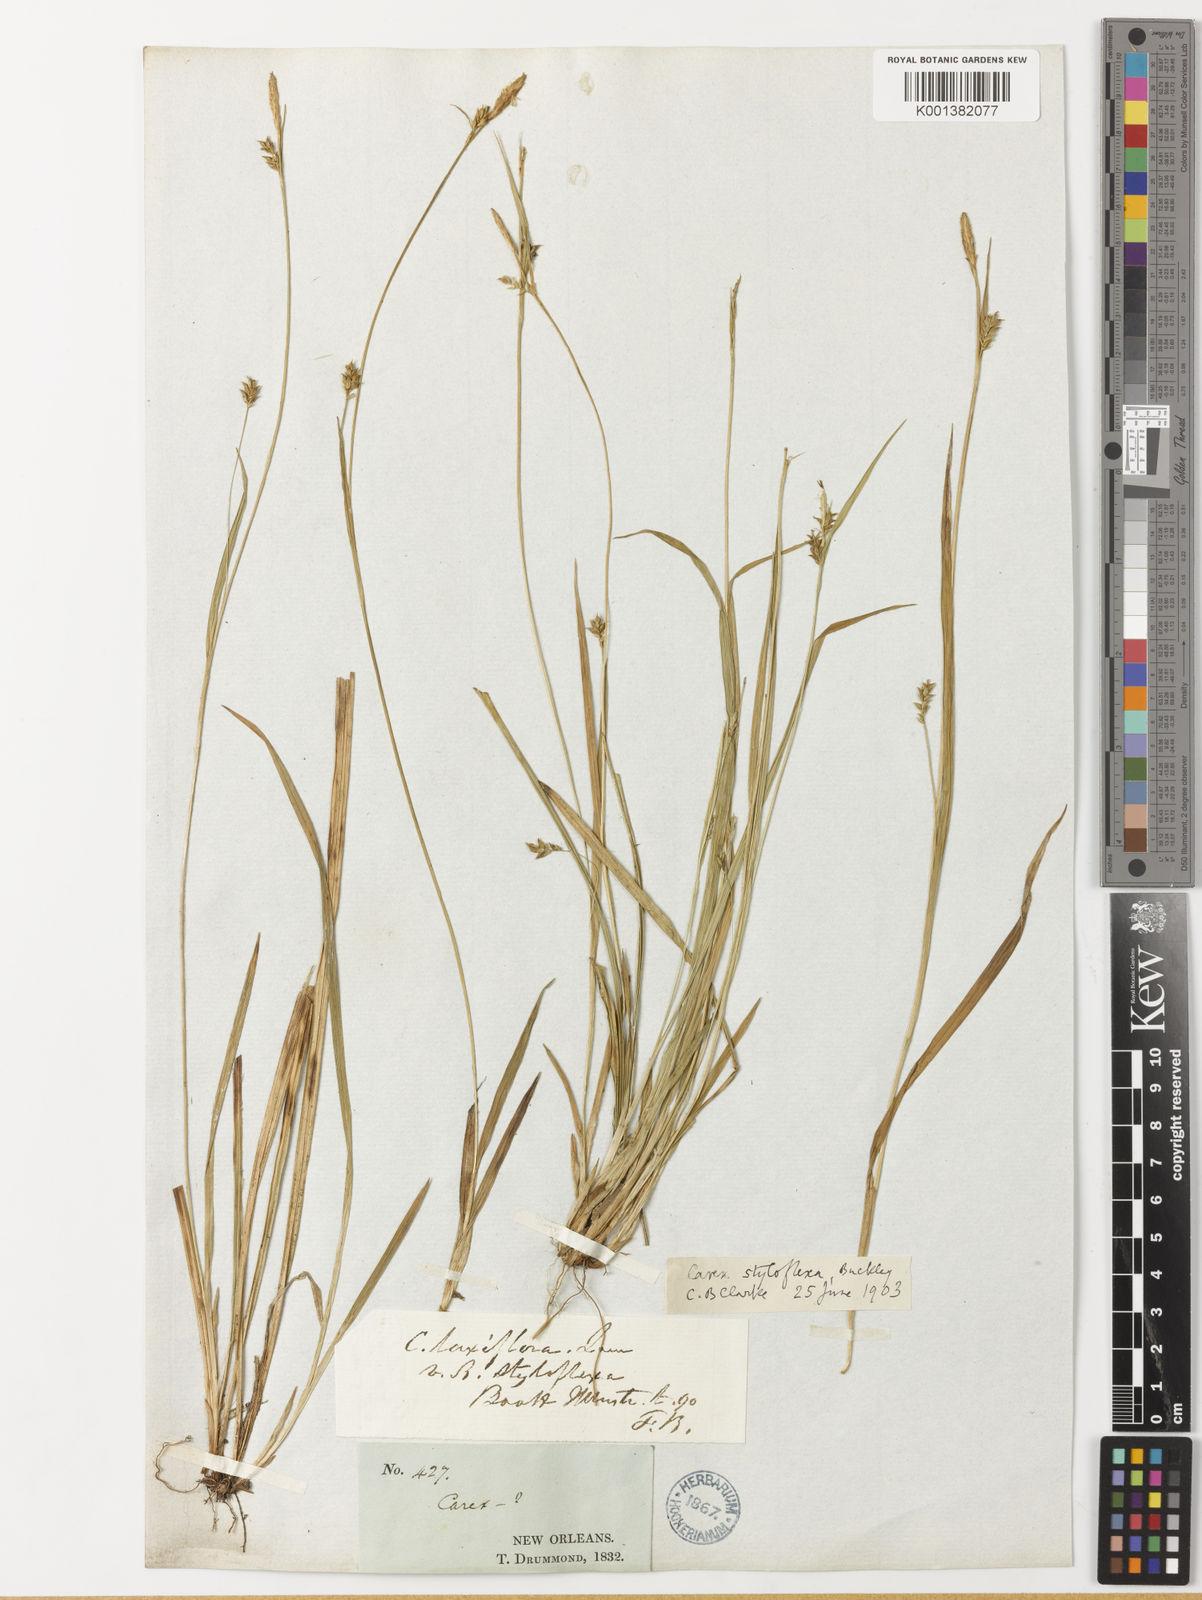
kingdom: Plantae
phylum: Tracheophyta
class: Liliopsida
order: Poales
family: Cyperaceae
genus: Carex
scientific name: Carex styloflexa
